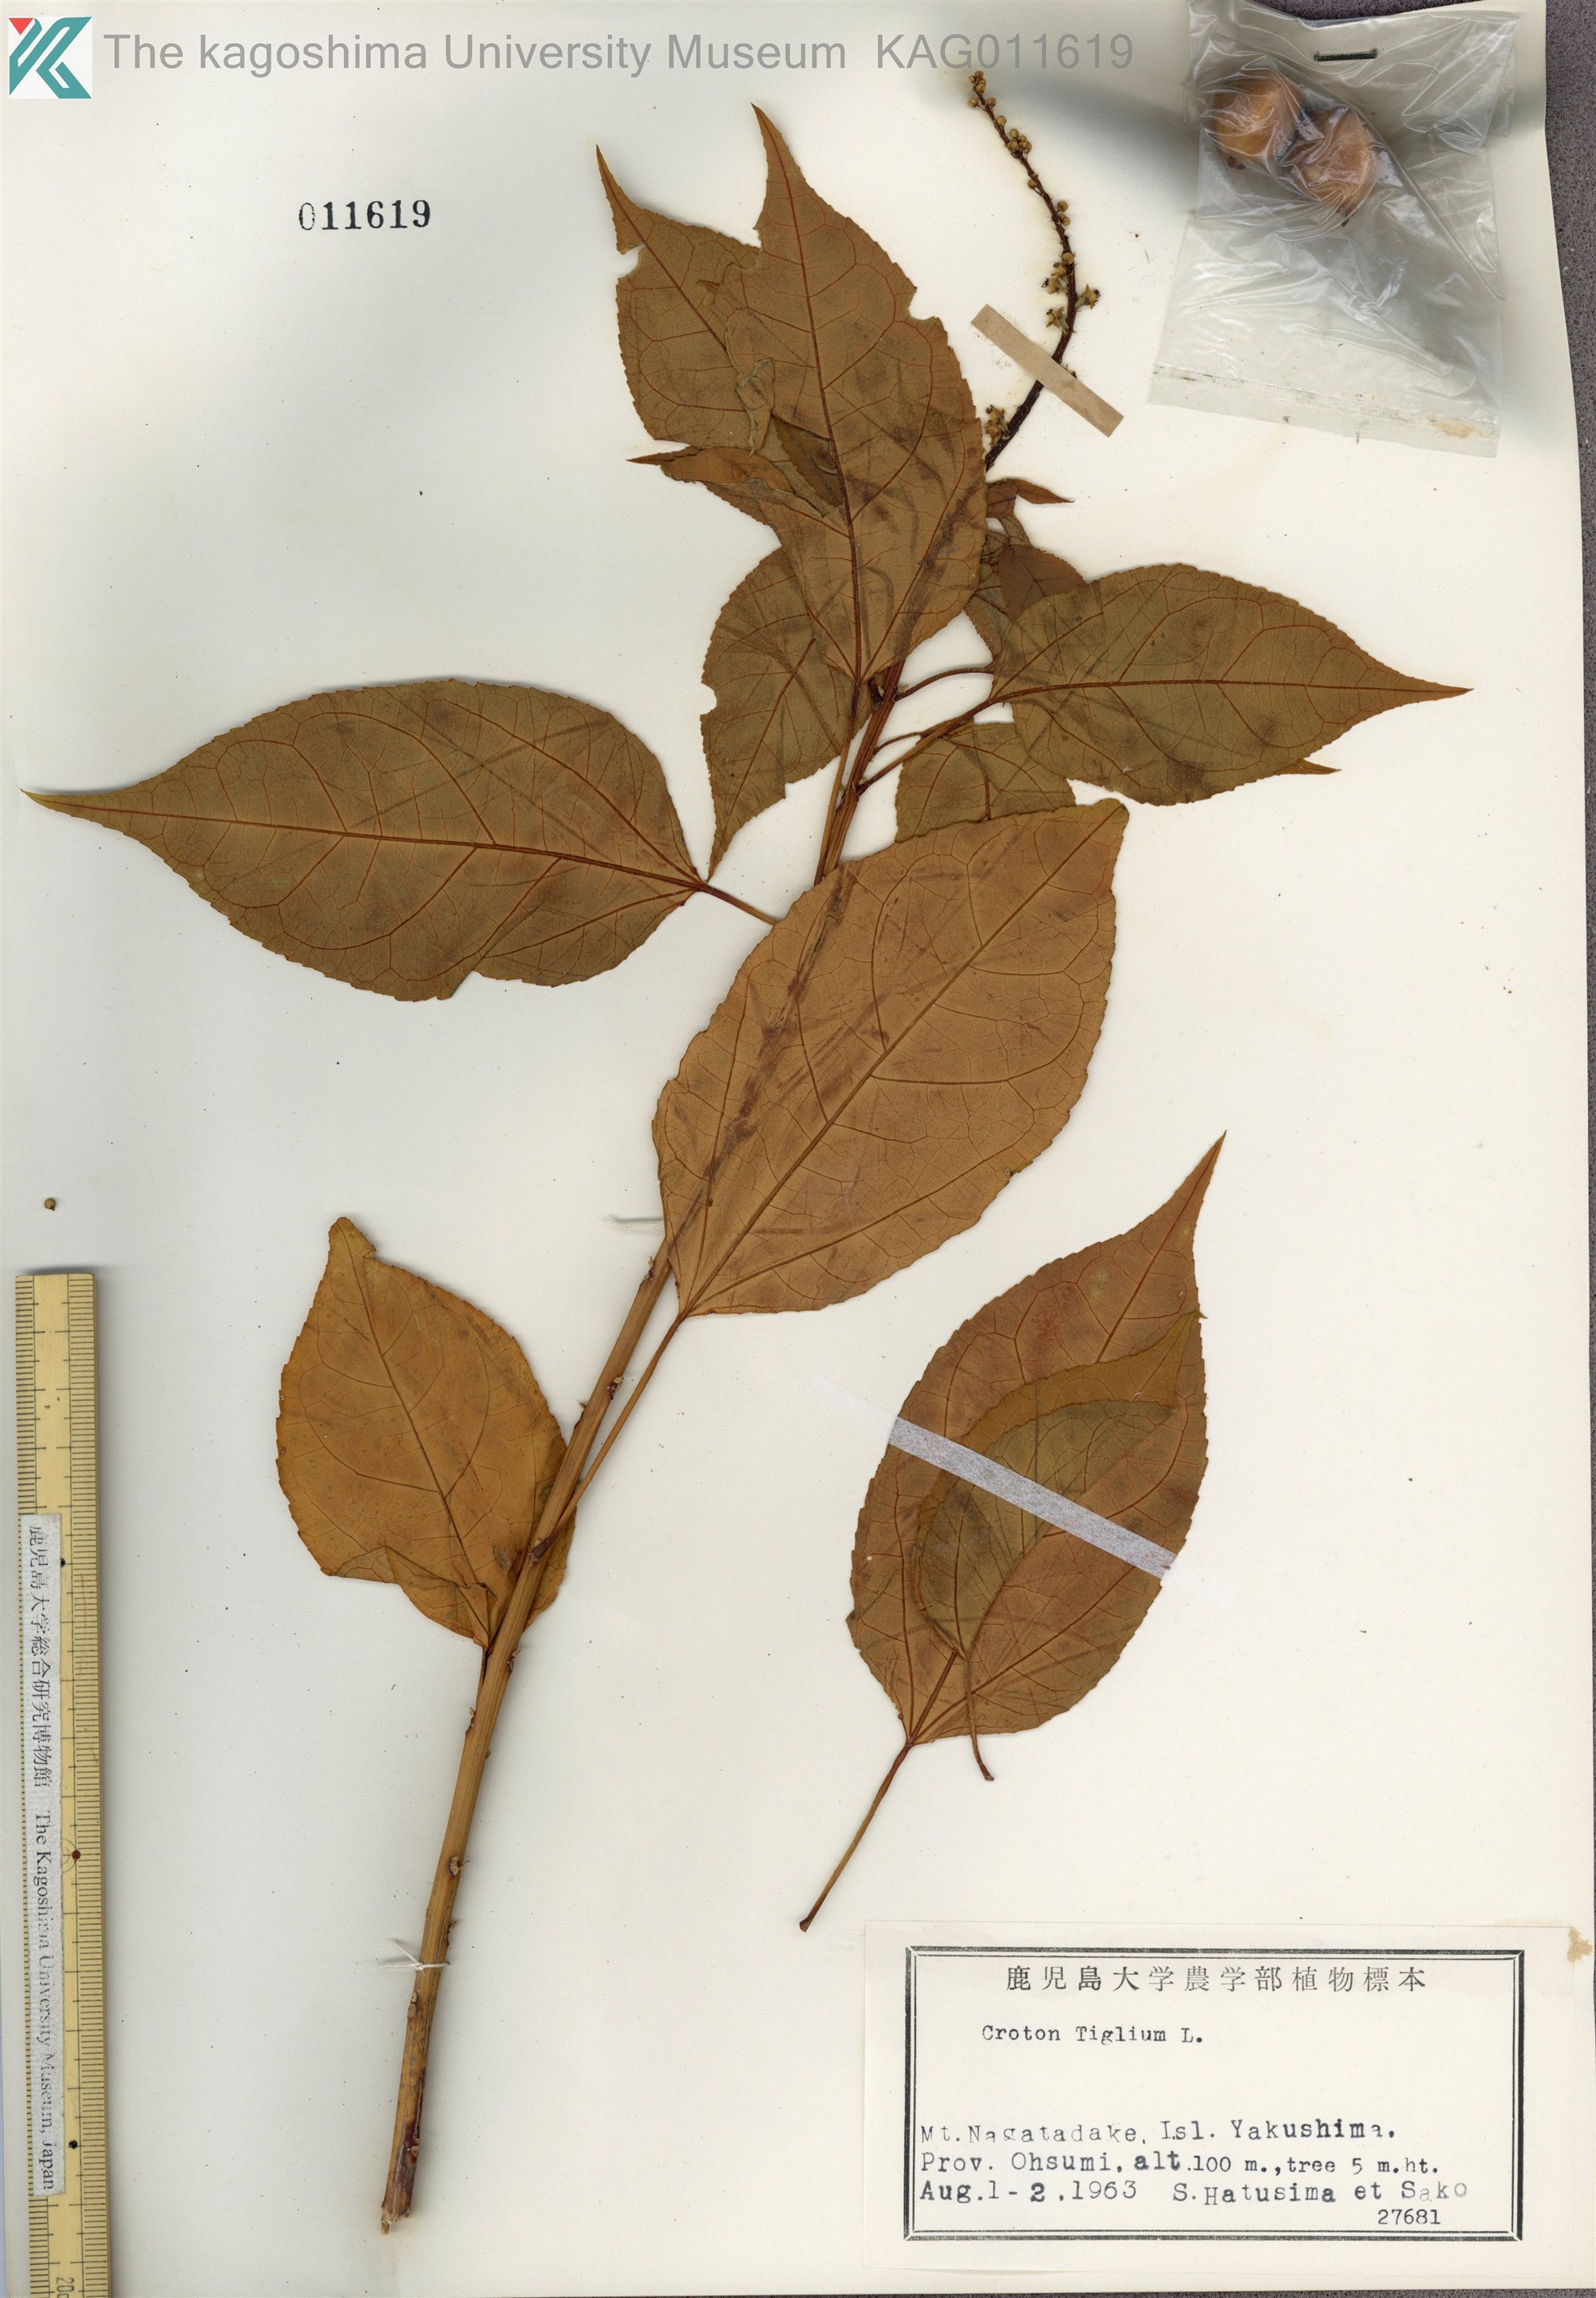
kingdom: Plantae
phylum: Tracheophyta
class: Magnoliopsida
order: Malpighiales
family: Euphorbiaceae
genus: Croton
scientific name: Croton tiglium
